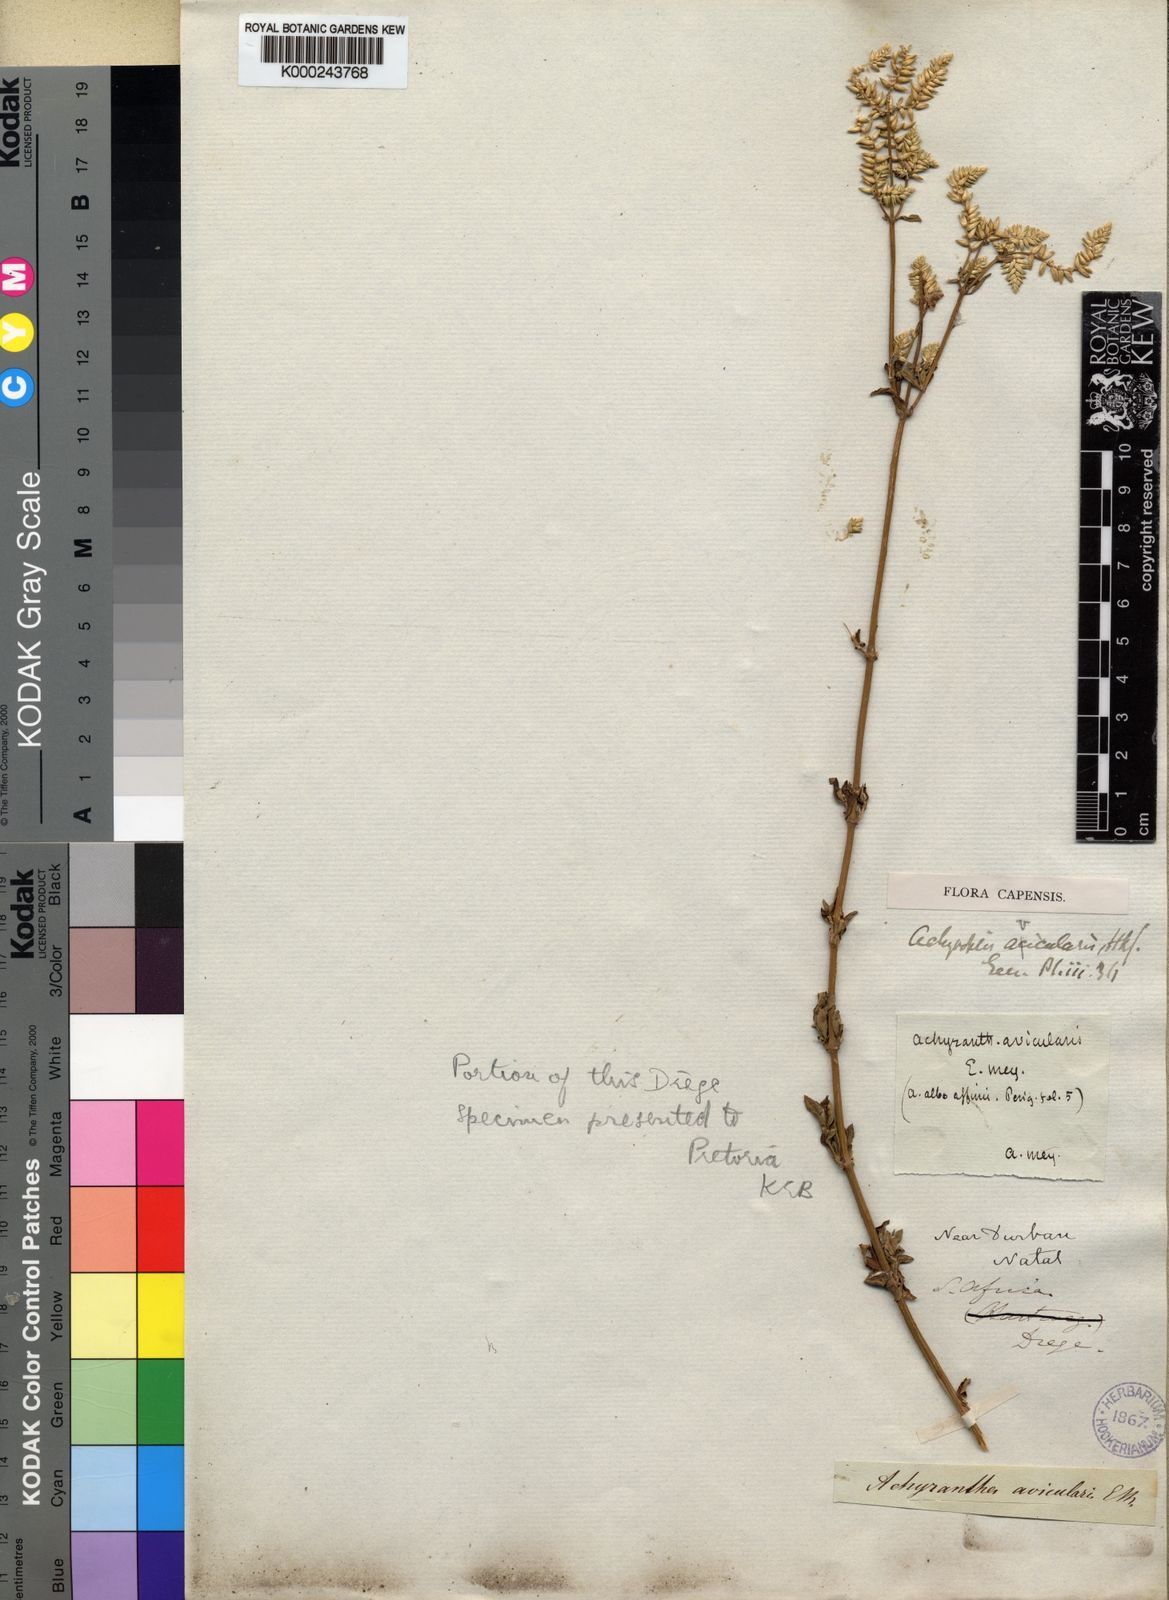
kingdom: Plantae
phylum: Tracheophyta
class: Magnoliopsida
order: Caryophyllales
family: Amaranthaceae
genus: Achyropsis
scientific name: Achyropsis
